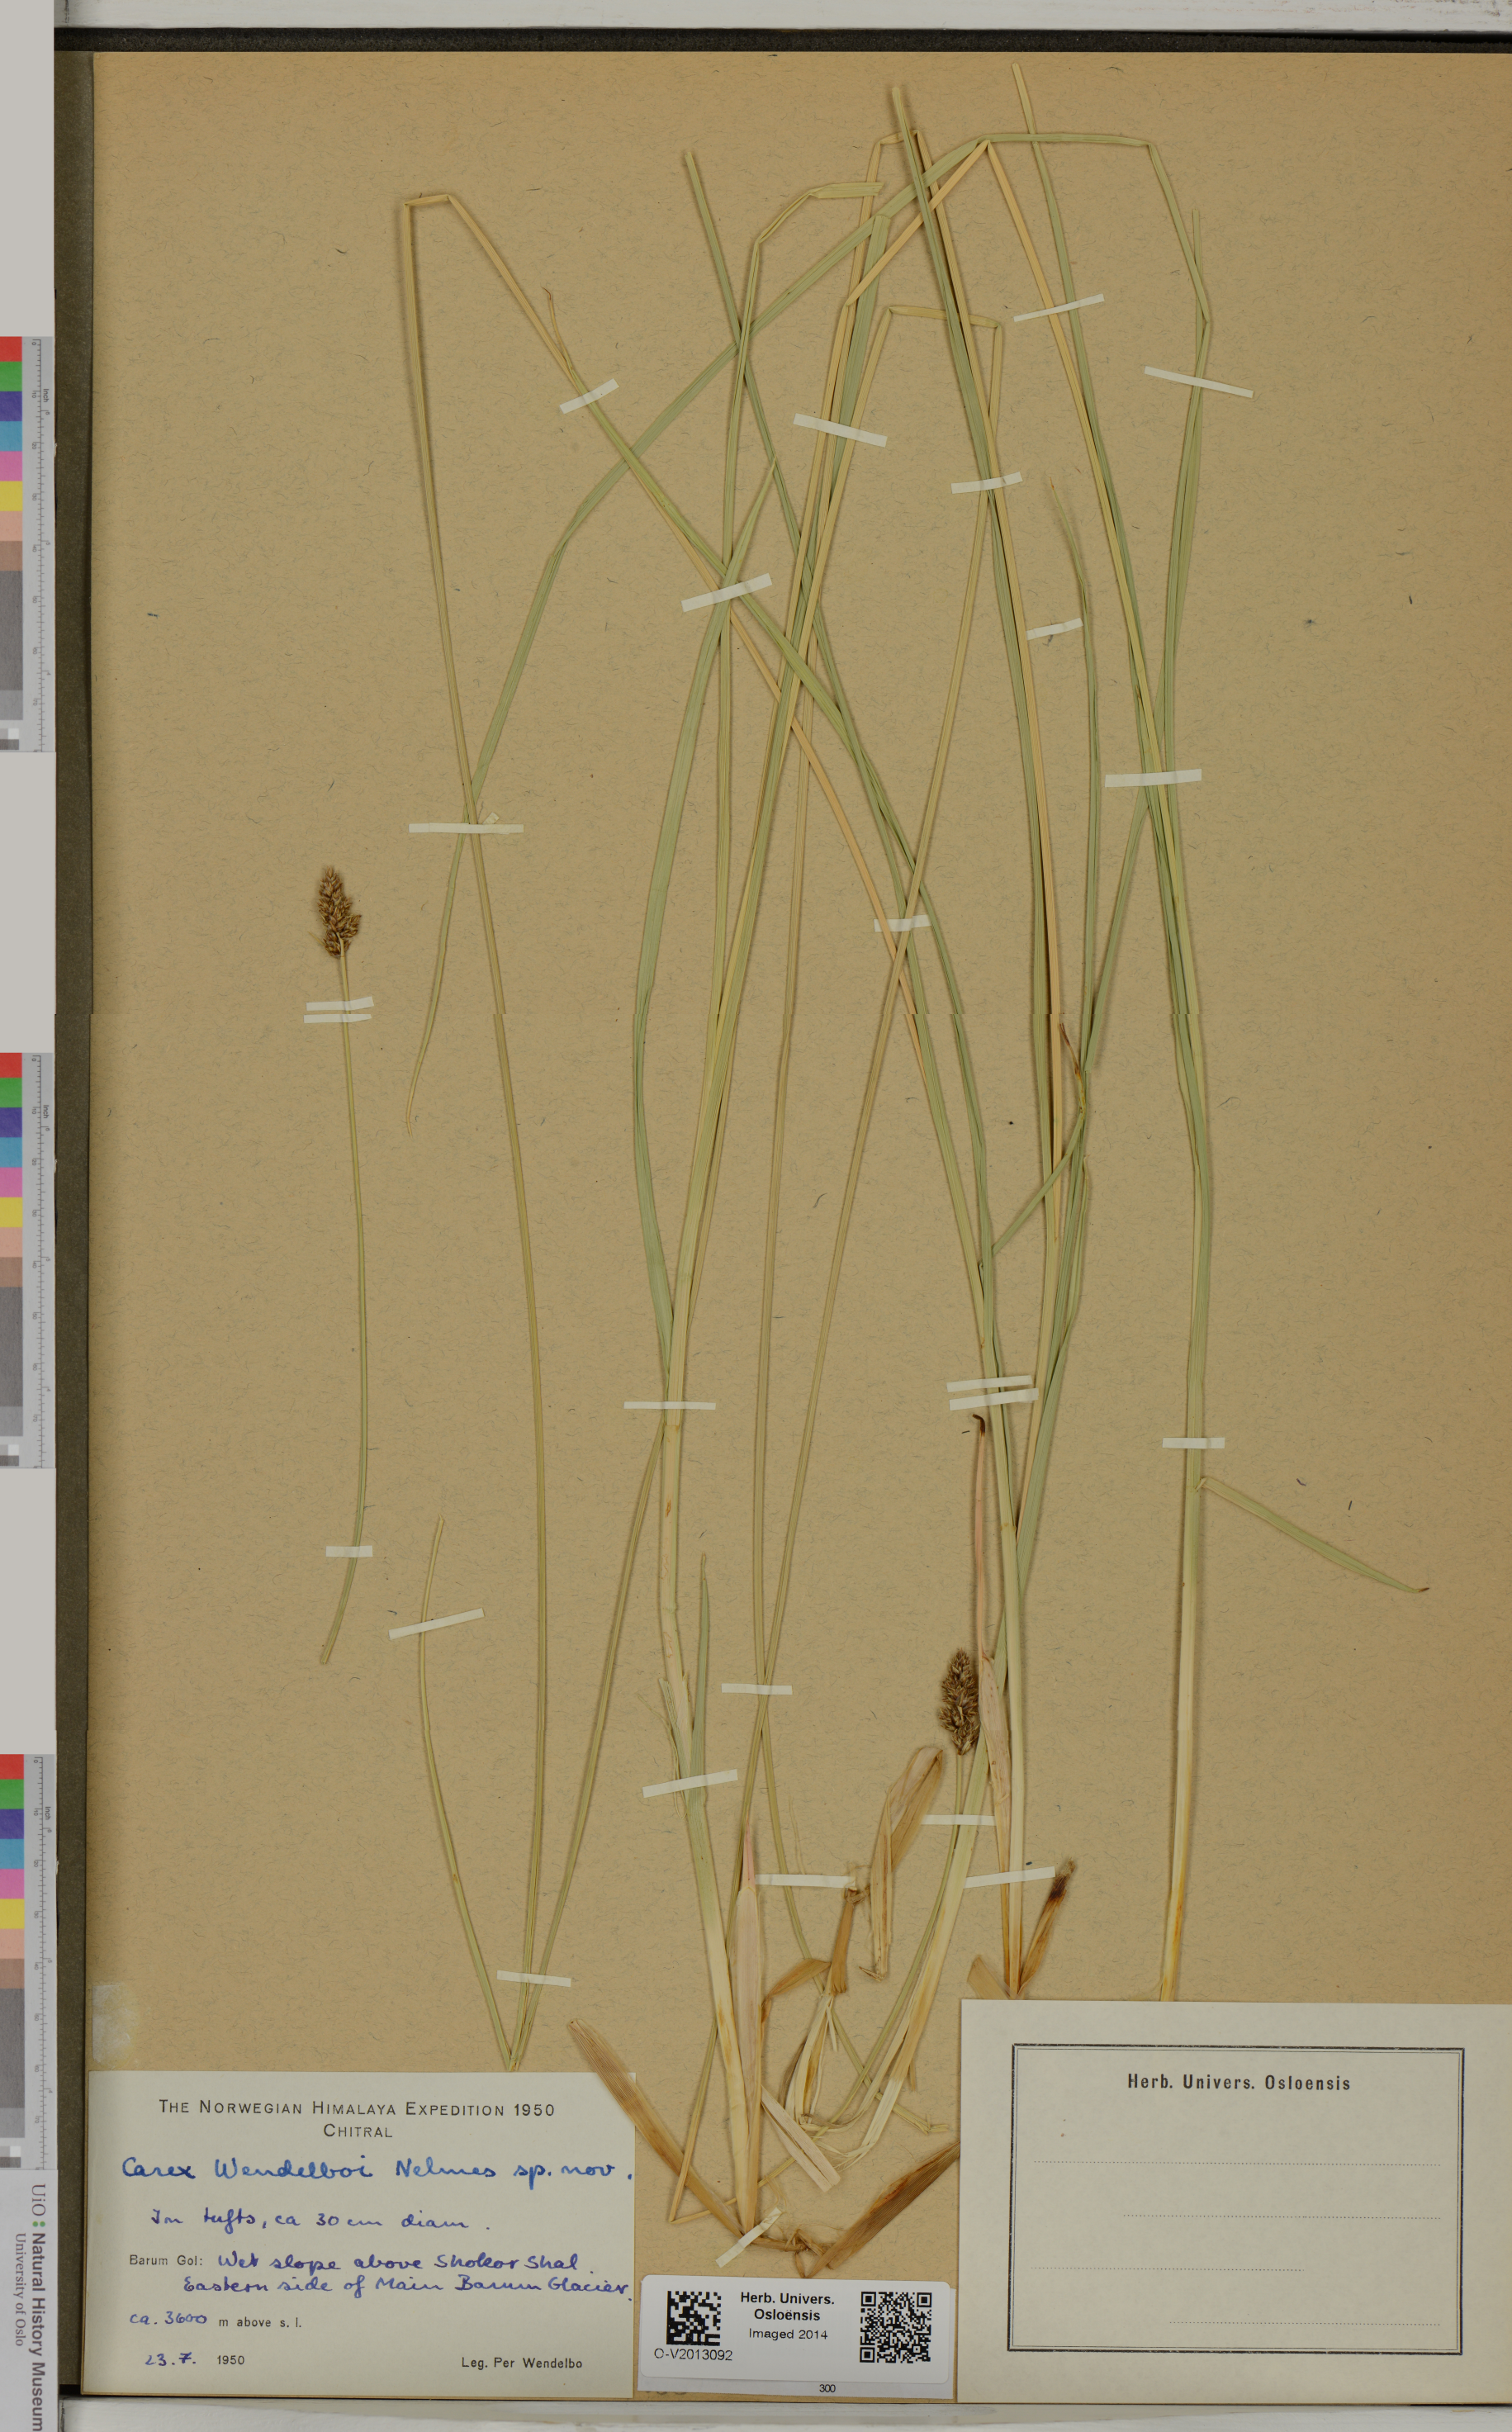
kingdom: Plantae
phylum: Tracheophyta
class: Liliopsida
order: Poales
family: Cyperaceae
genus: Carex
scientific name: Carex vulpinaris
